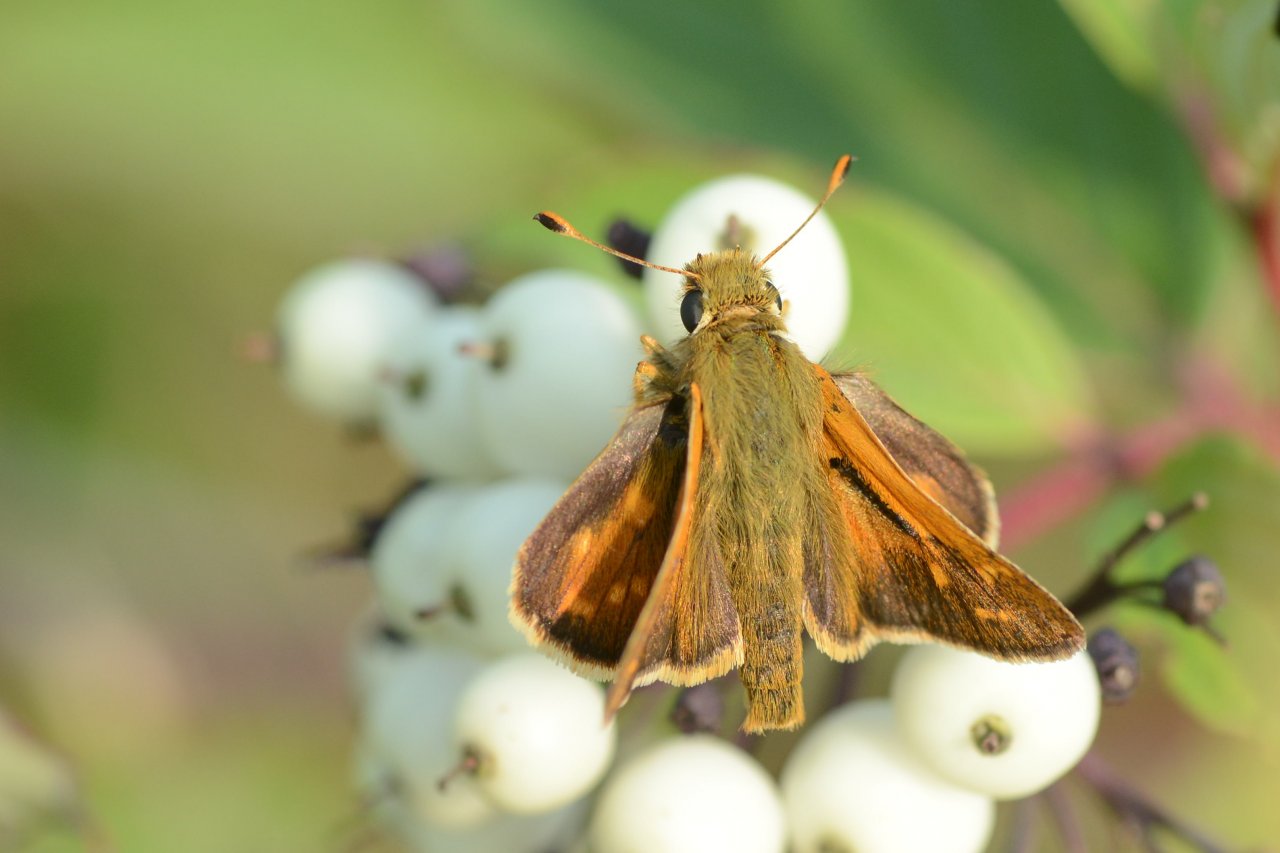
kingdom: Animalia
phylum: Arthropoda
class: Insecta
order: Lepidoptera
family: Hesperiidae
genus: Hesperia
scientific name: Hesperia comma
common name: Common Branded Skipper
